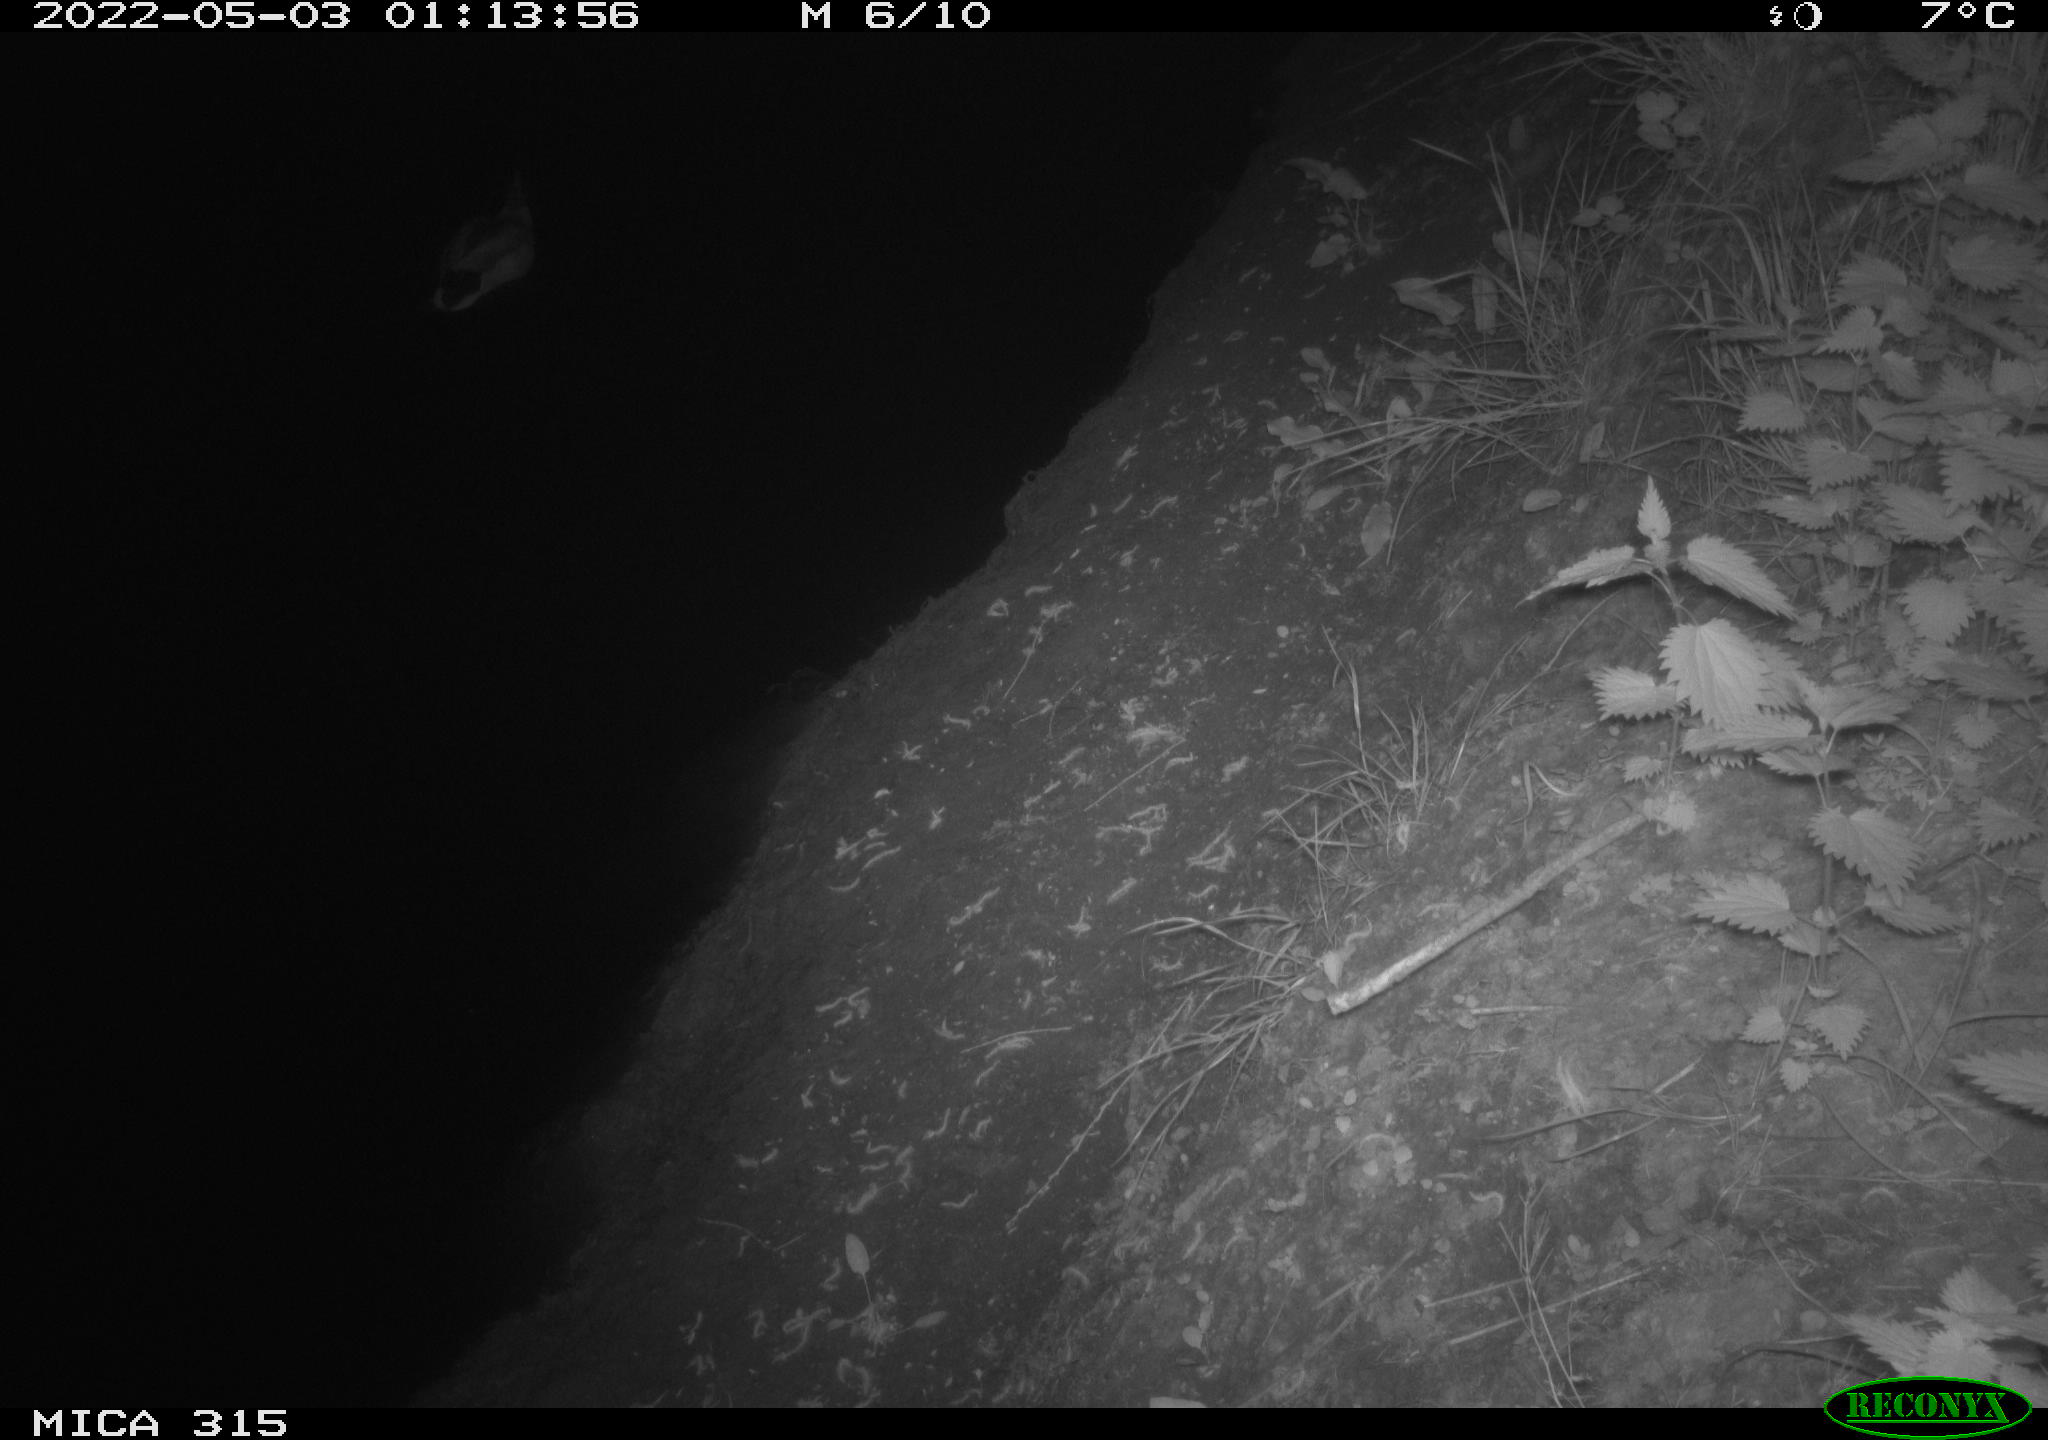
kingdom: Animalia
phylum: Chordata
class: Aves
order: Anseriformes
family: Anatidae
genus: Anas
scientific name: Anas platyrhynchos
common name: Mallard
